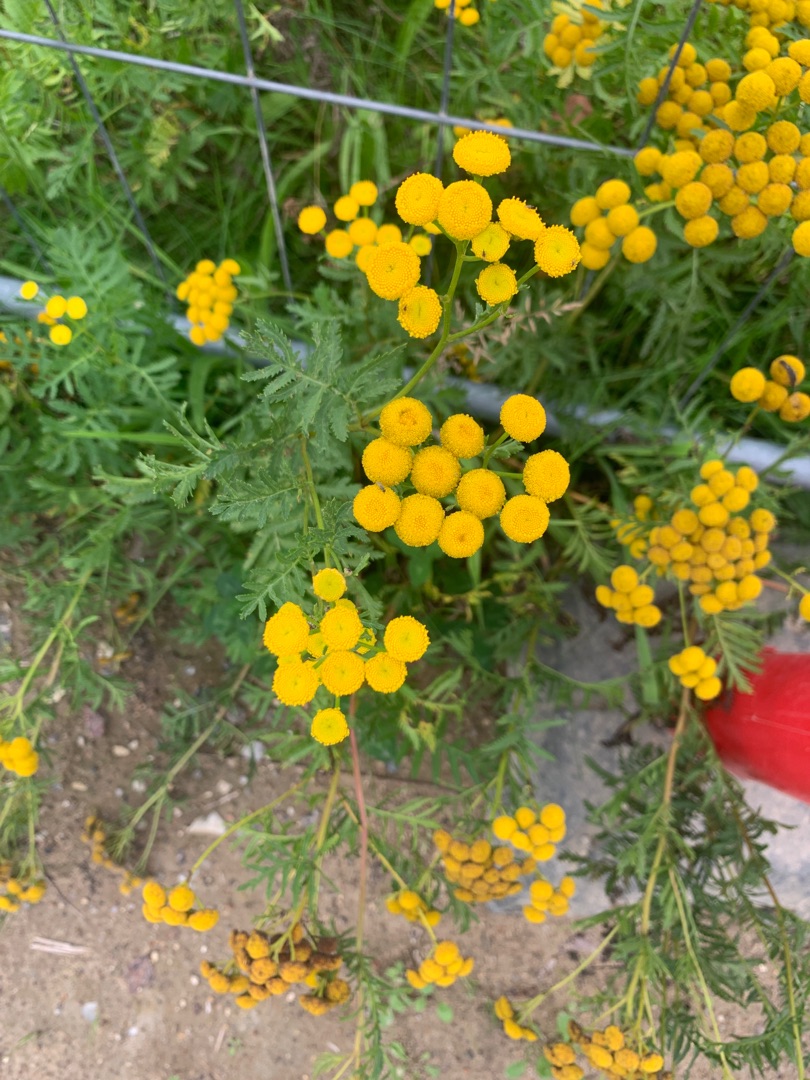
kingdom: Plantae
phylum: Tracheophyta
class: Magnoliopsida
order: Asterales
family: Asteraceae
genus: Tanacetum
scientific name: Tanacetum vulgare
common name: Rejnfan
